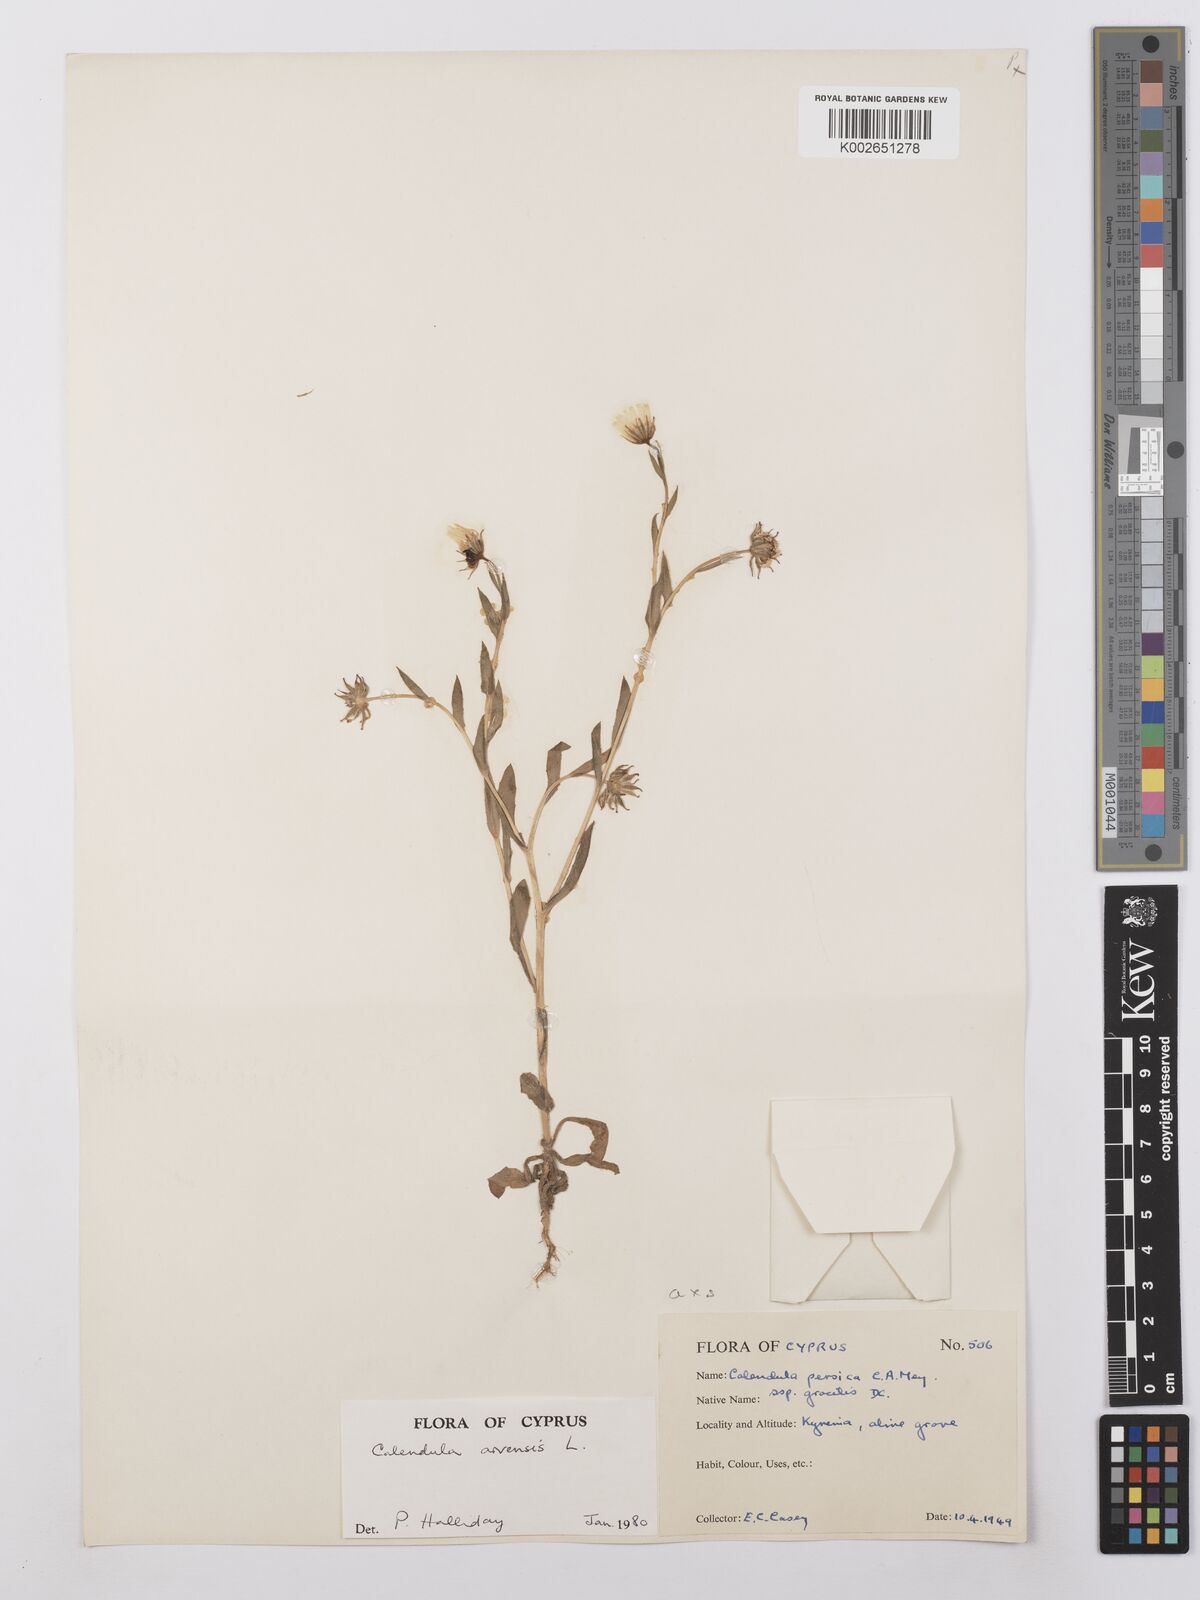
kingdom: Plantae
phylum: Tracheophyta
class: Magnoliopsida
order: Asterales
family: Asteraceae
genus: Calendula
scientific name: Calendula arvensis
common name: Field marigold
